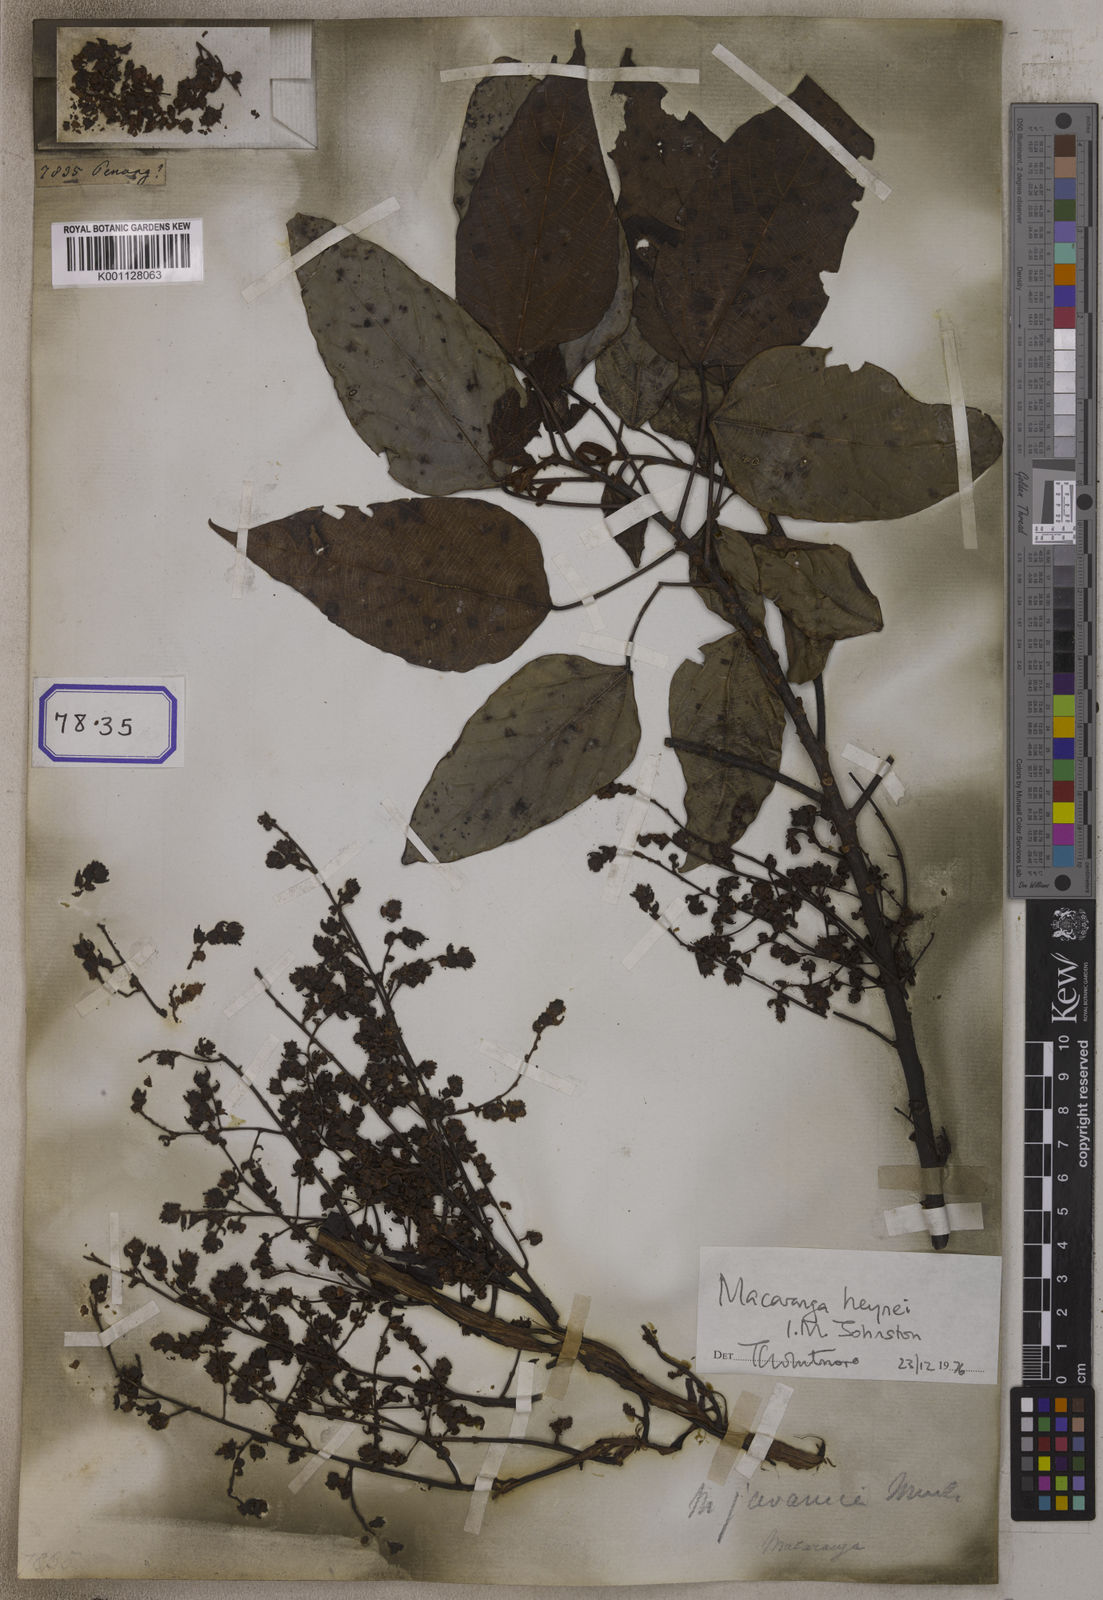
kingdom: Plantae
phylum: Tracheophyta
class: Magnoliopsida
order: Malpighiales
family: Euphorbiaceae
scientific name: Euphorbiaceae
